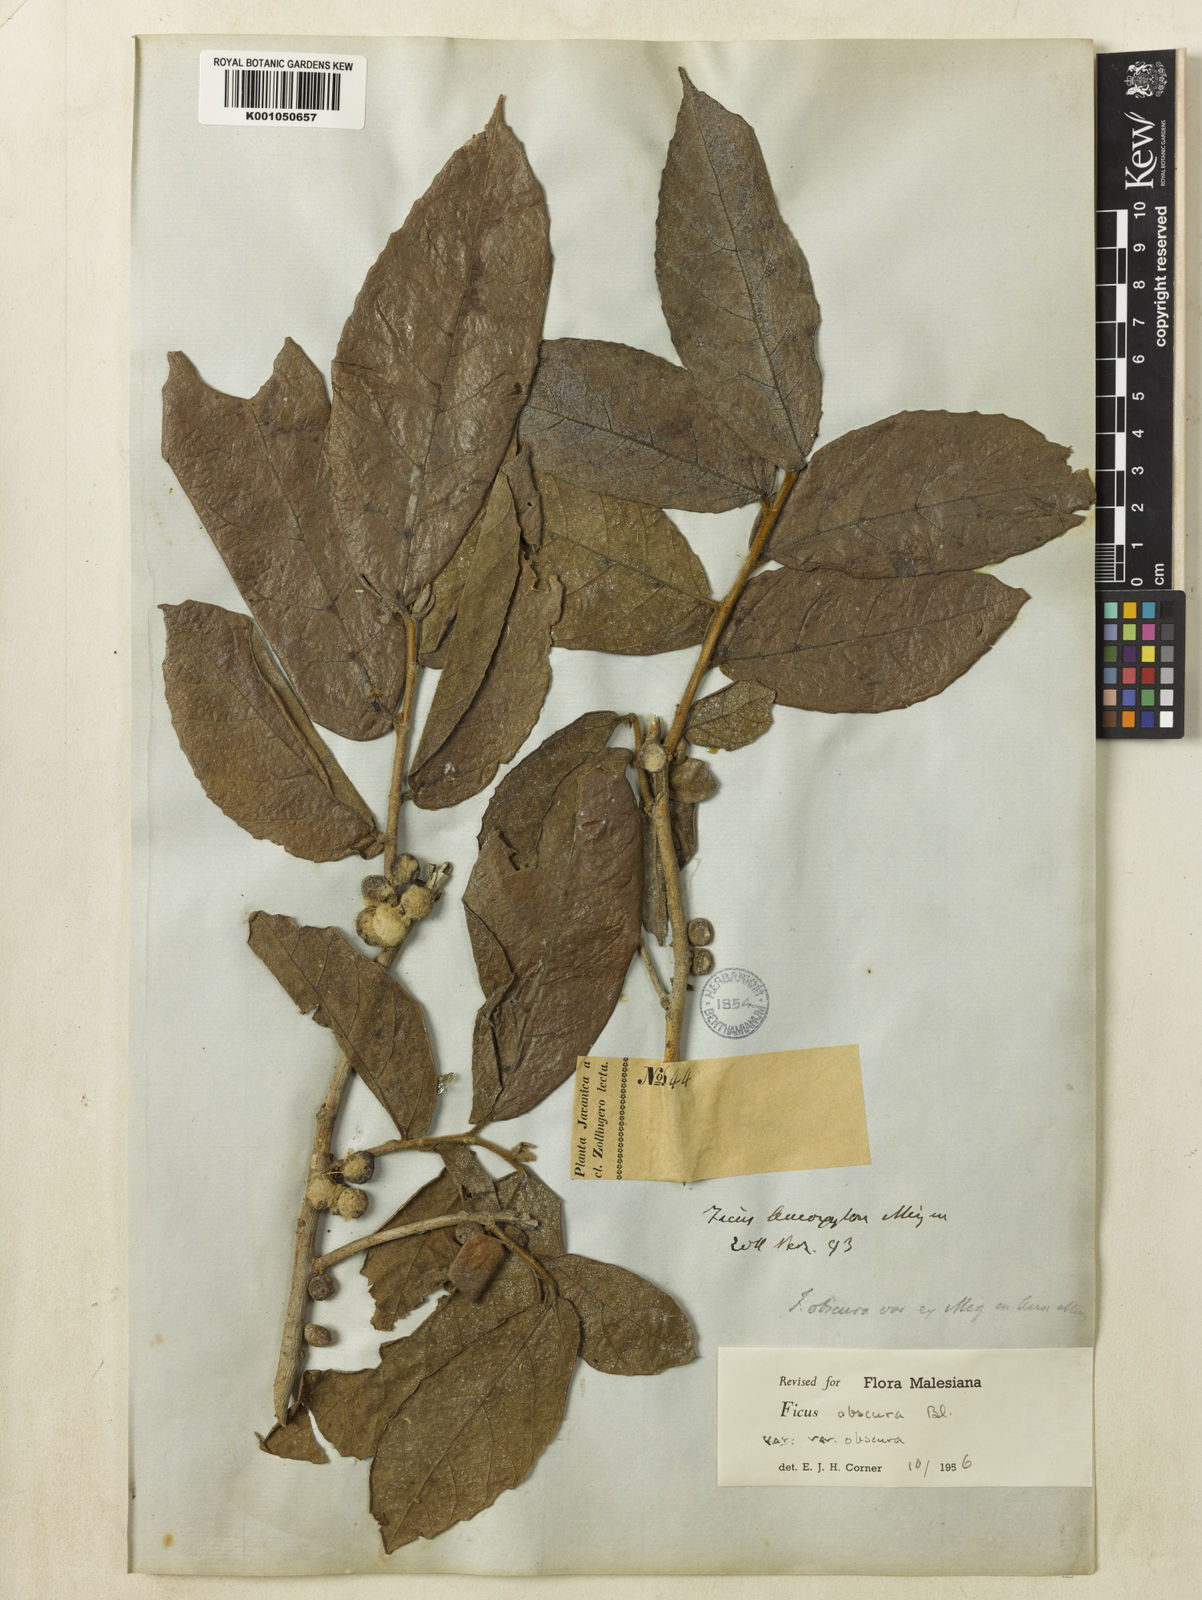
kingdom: Plantae
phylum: Tracheophyta
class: Magnoliopsida
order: Rosales
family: Moraceae
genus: Ficus
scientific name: Ficus obscura
